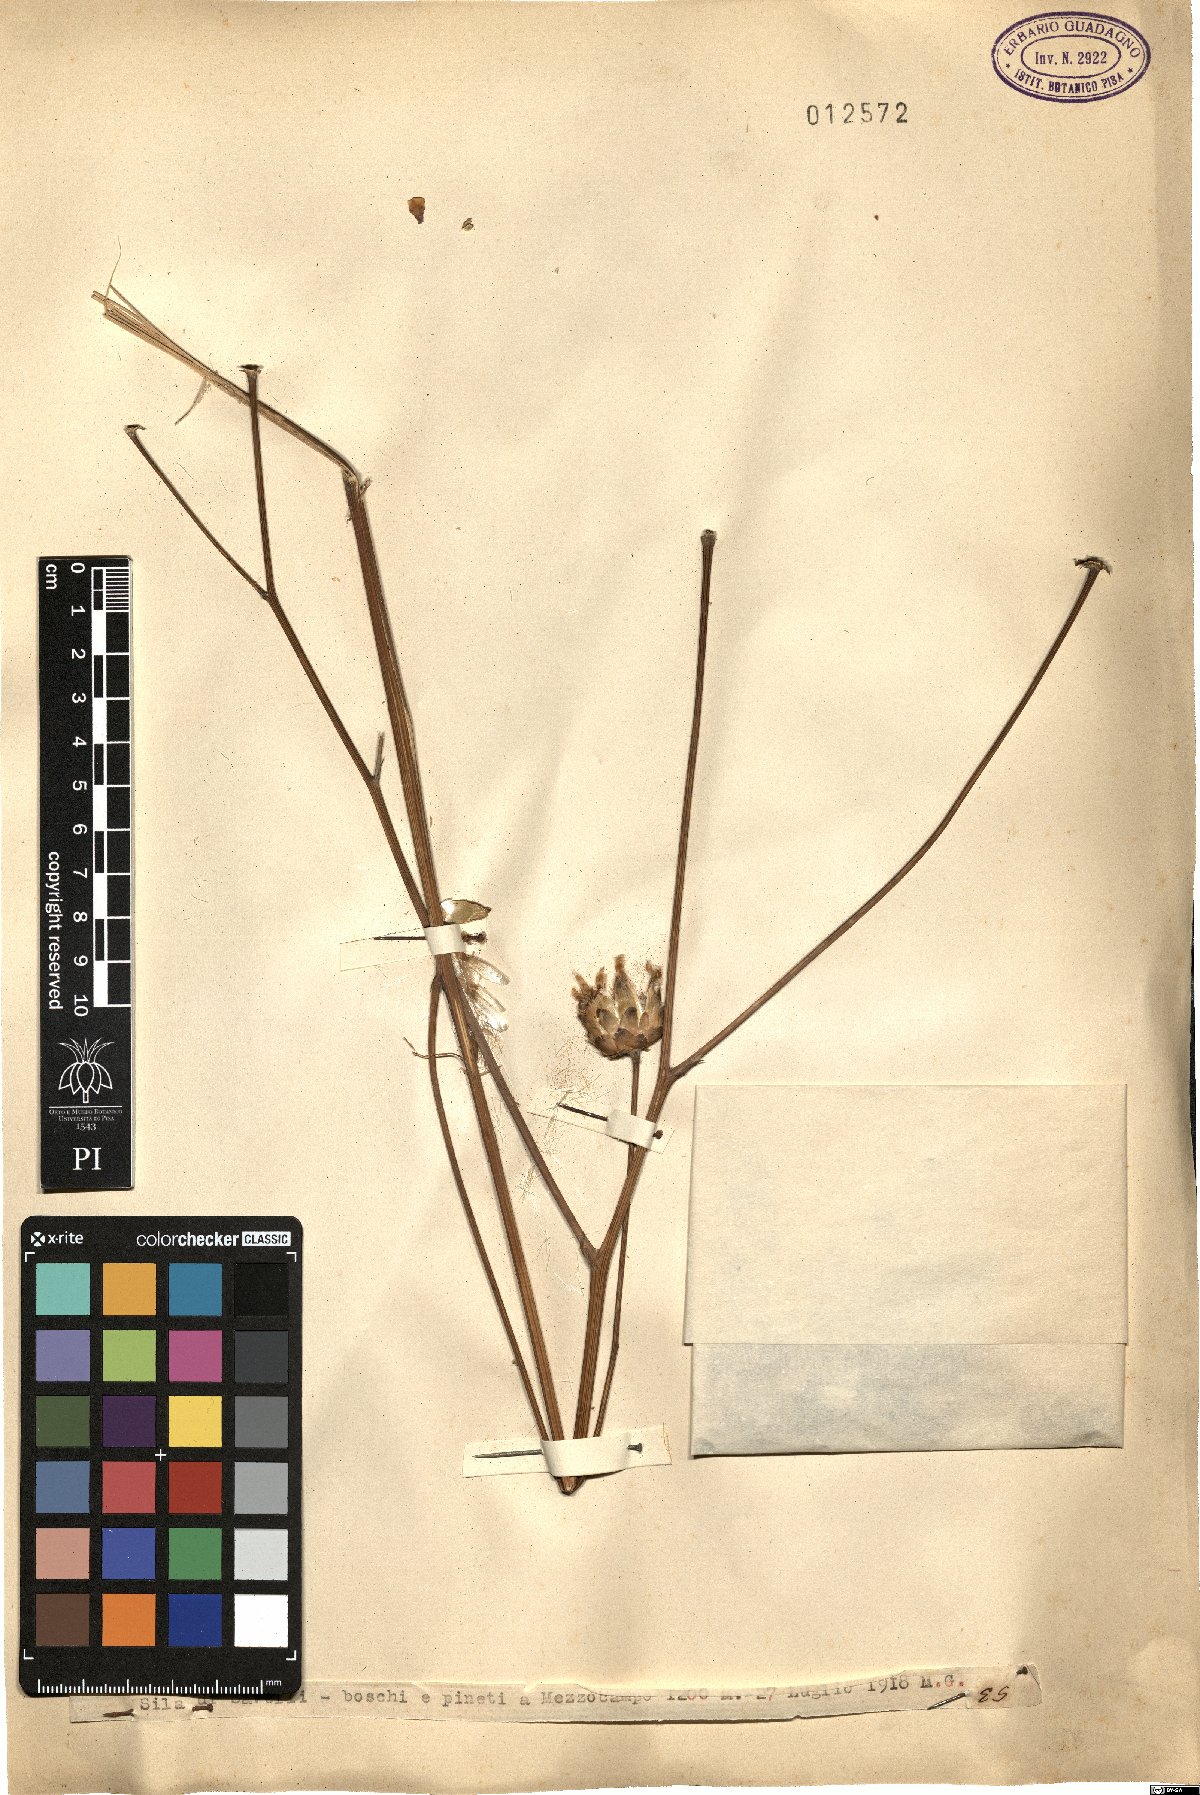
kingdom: Plantae
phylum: Tracheophyta
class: Magnoliopsida
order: Asterales
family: Asteraceae
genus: Centaurea
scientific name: Centaurea
